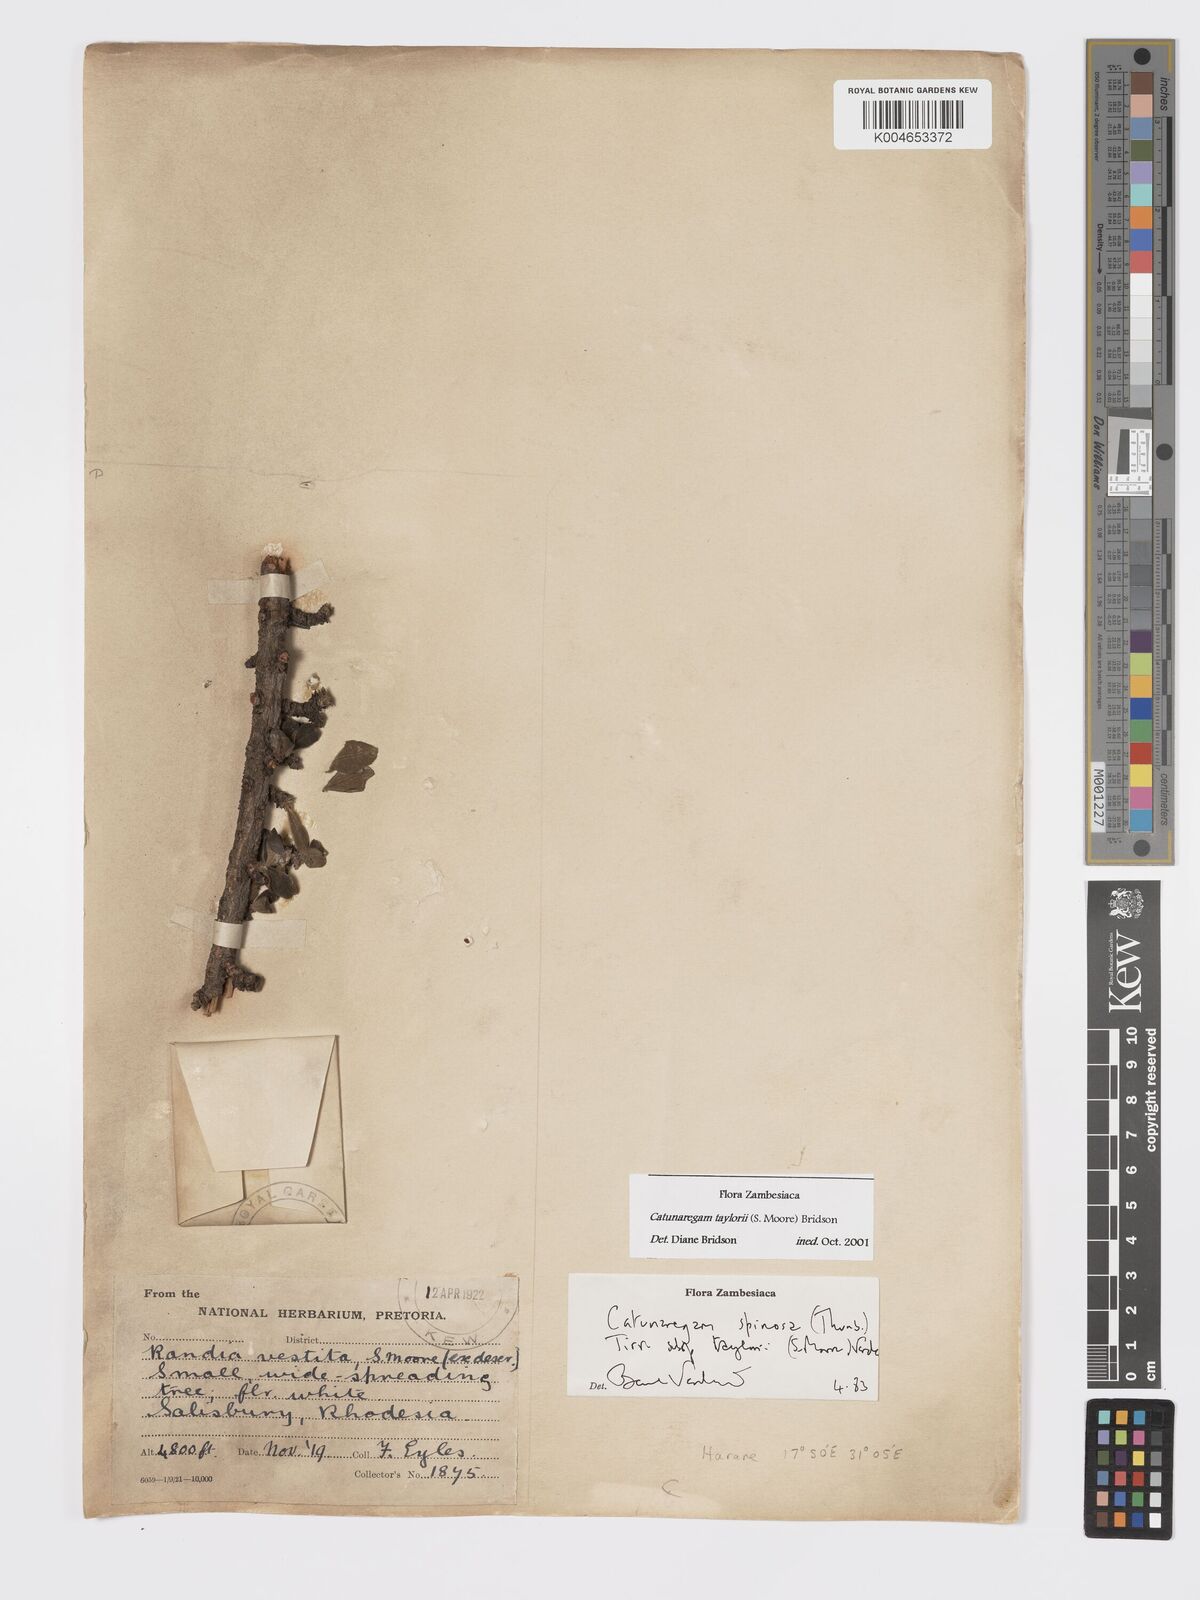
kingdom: Plantae
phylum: Tracheophyta
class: Magnoliopsida
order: Gentianales
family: Rubiaceae
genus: Catunaregam
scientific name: Catunaregam
